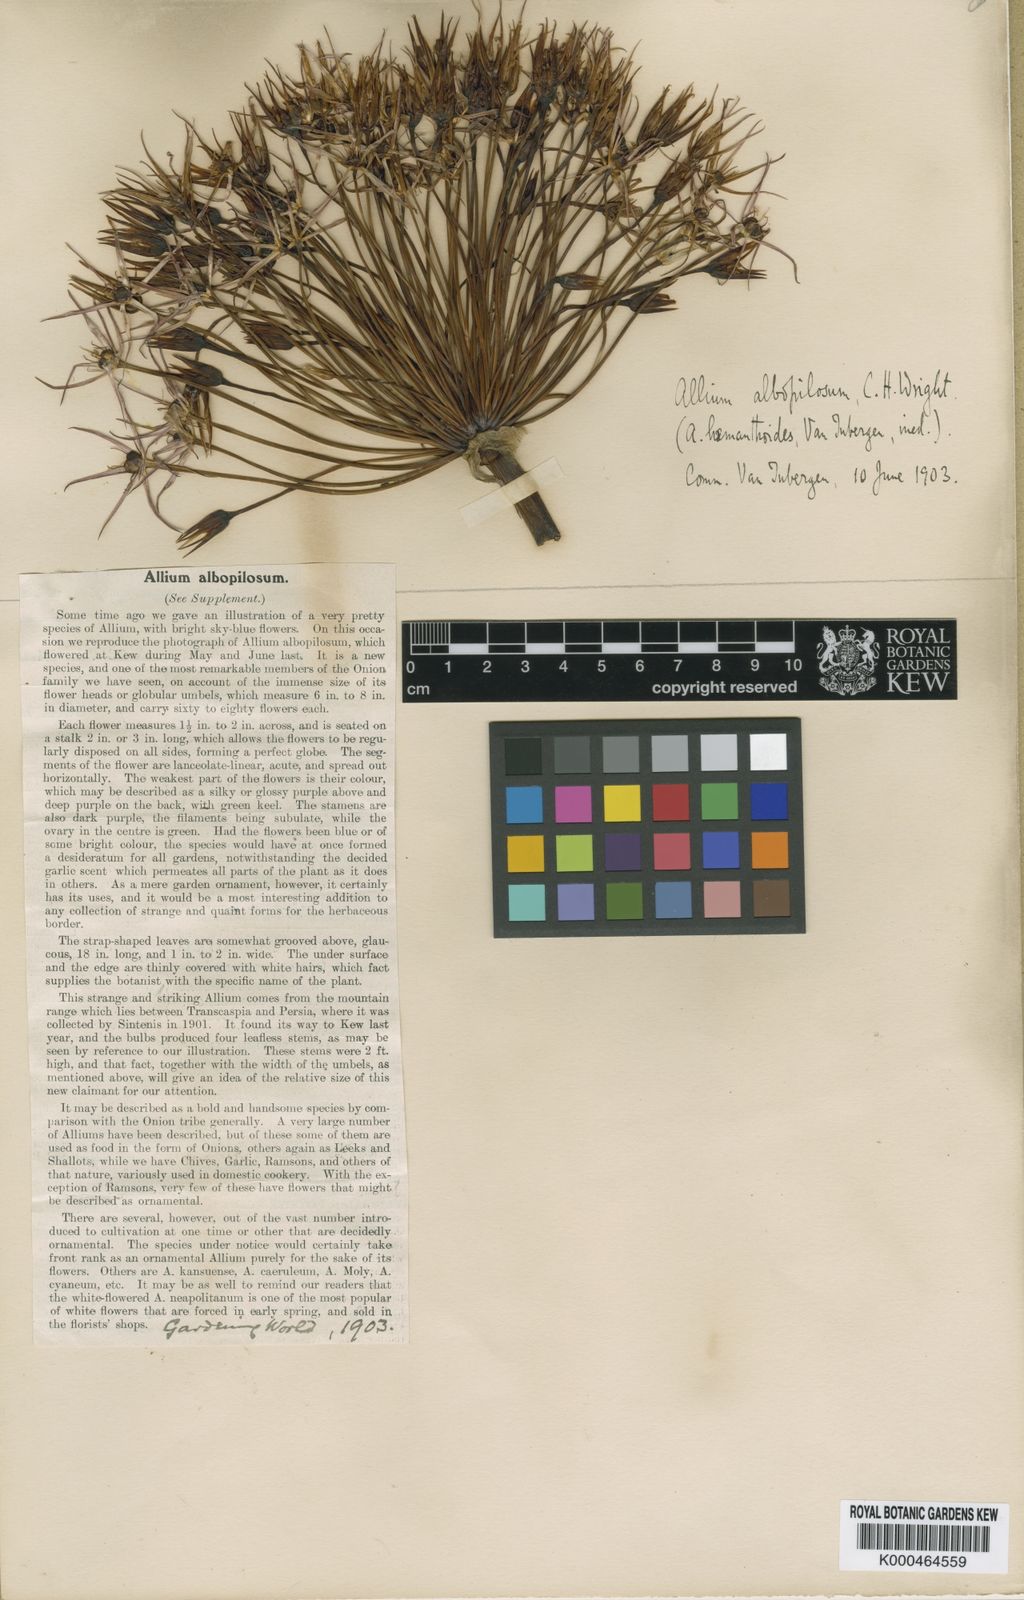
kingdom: Plantae
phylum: Tracheophyta
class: Liliopsida
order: Asparagales
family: Amaryllidaceae
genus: Allium
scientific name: Allium cristophii
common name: Persian onion
